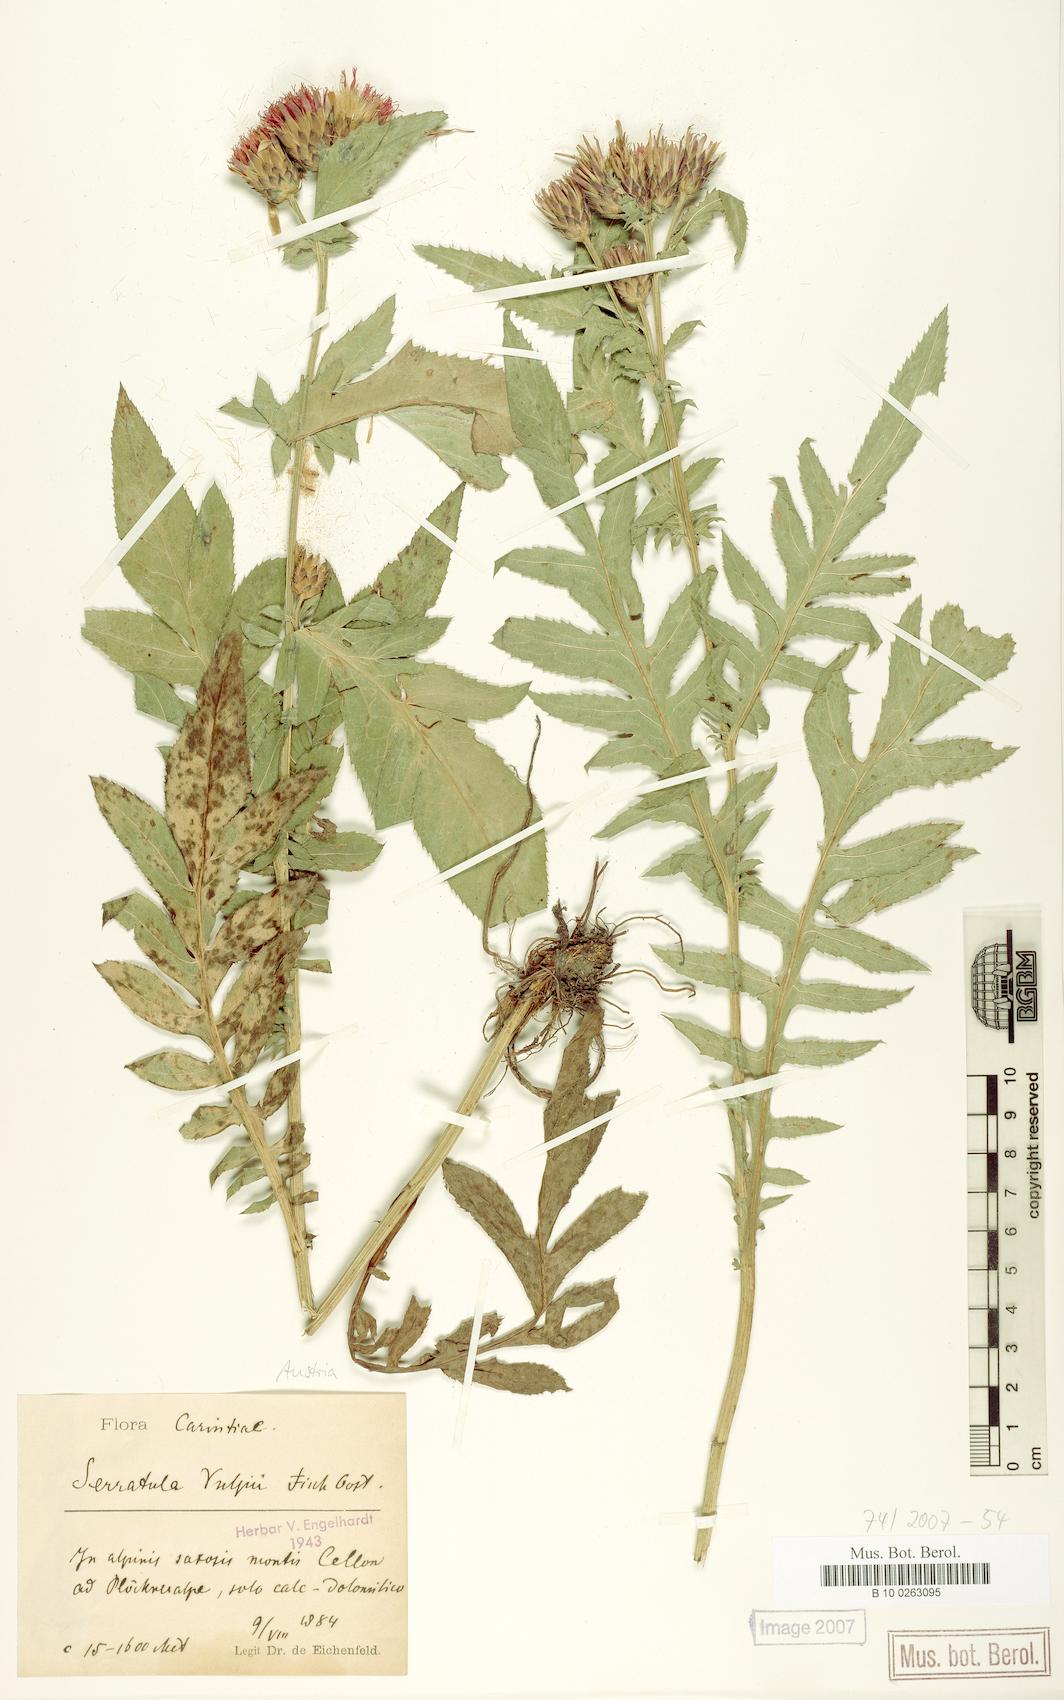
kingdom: Plantae
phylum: Tracheophyta
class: Magnoliopsida
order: Asterales
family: Asteraceae
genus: Serratula
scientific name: Serratula tinctoria
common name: Saw-wort
